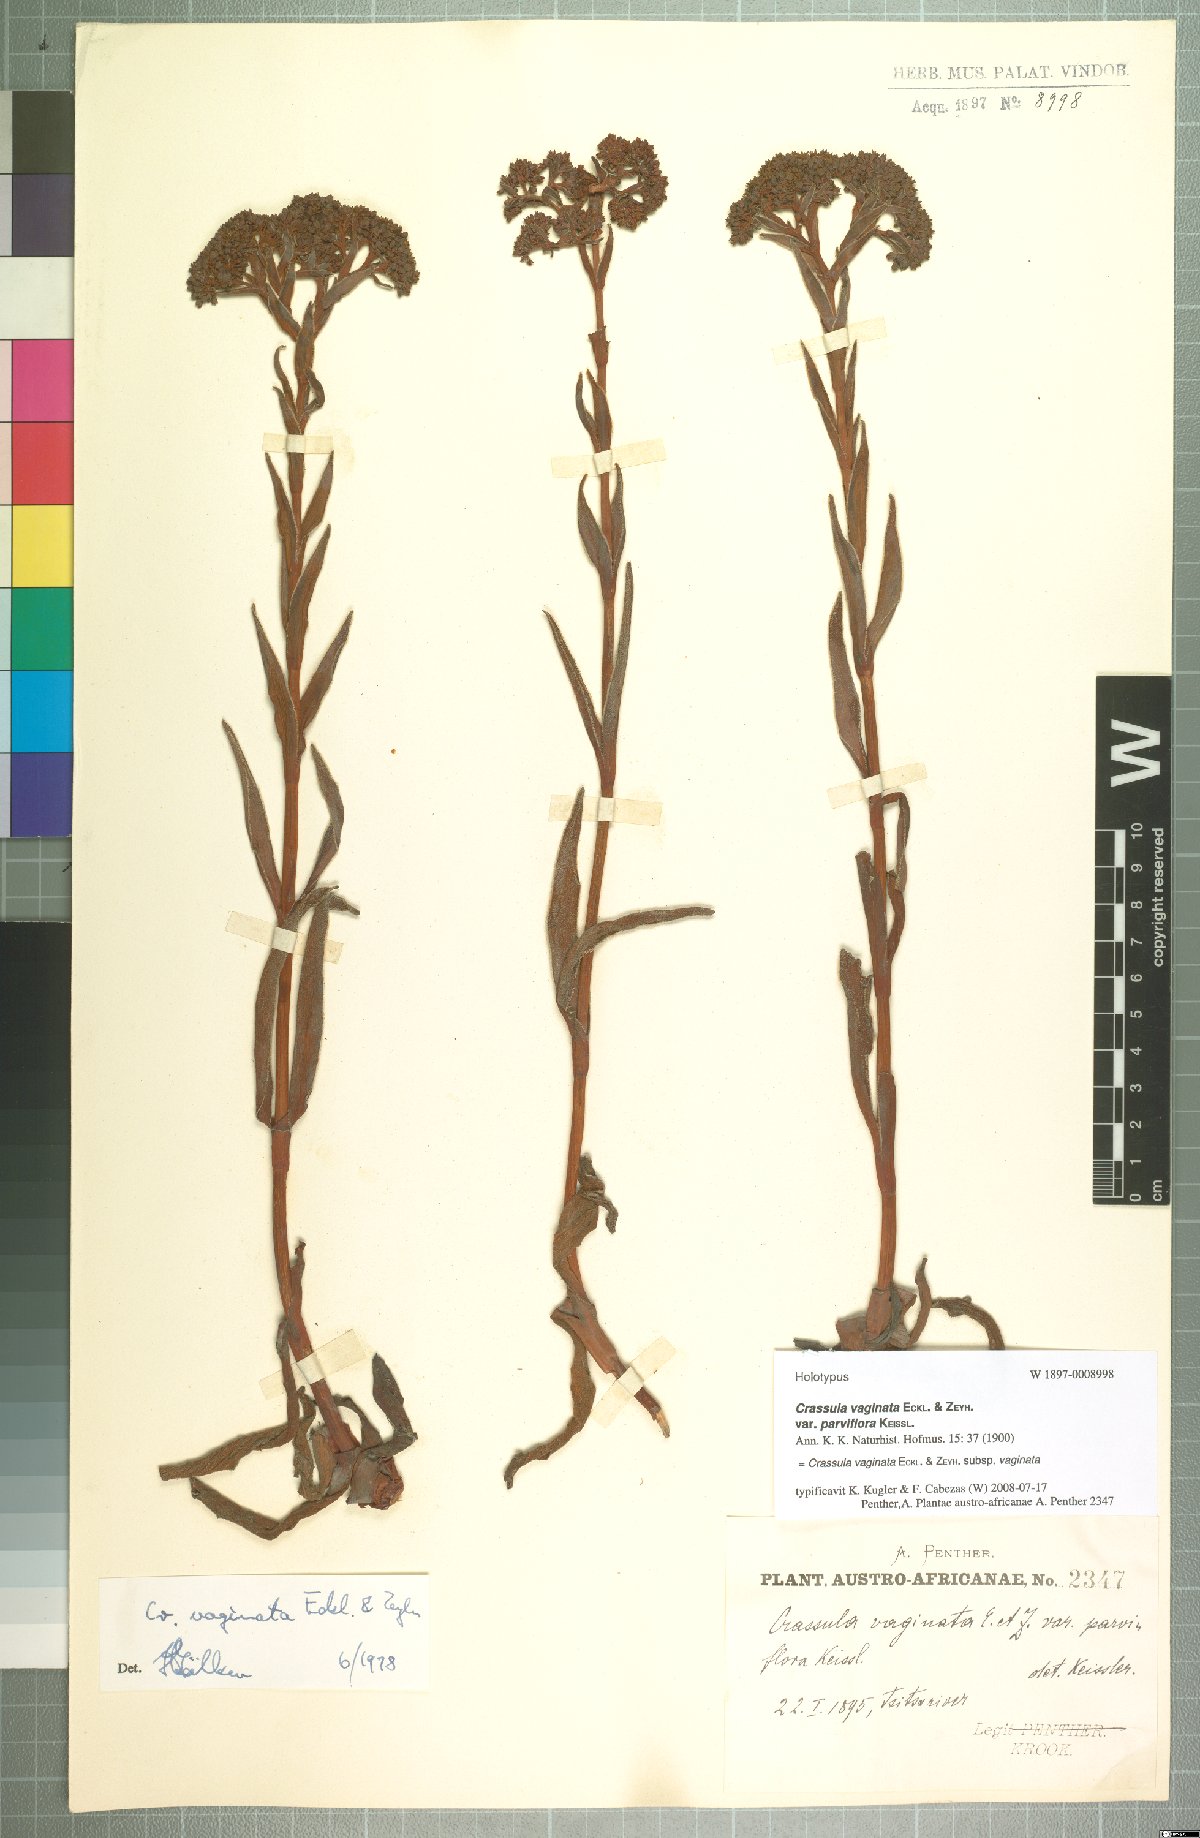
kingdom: Plantae
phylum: Tracheophyta
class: Magnoliopsida
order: Saxifragales
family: Crassulaceae
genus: Crassula
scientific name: Crassula vaginata
